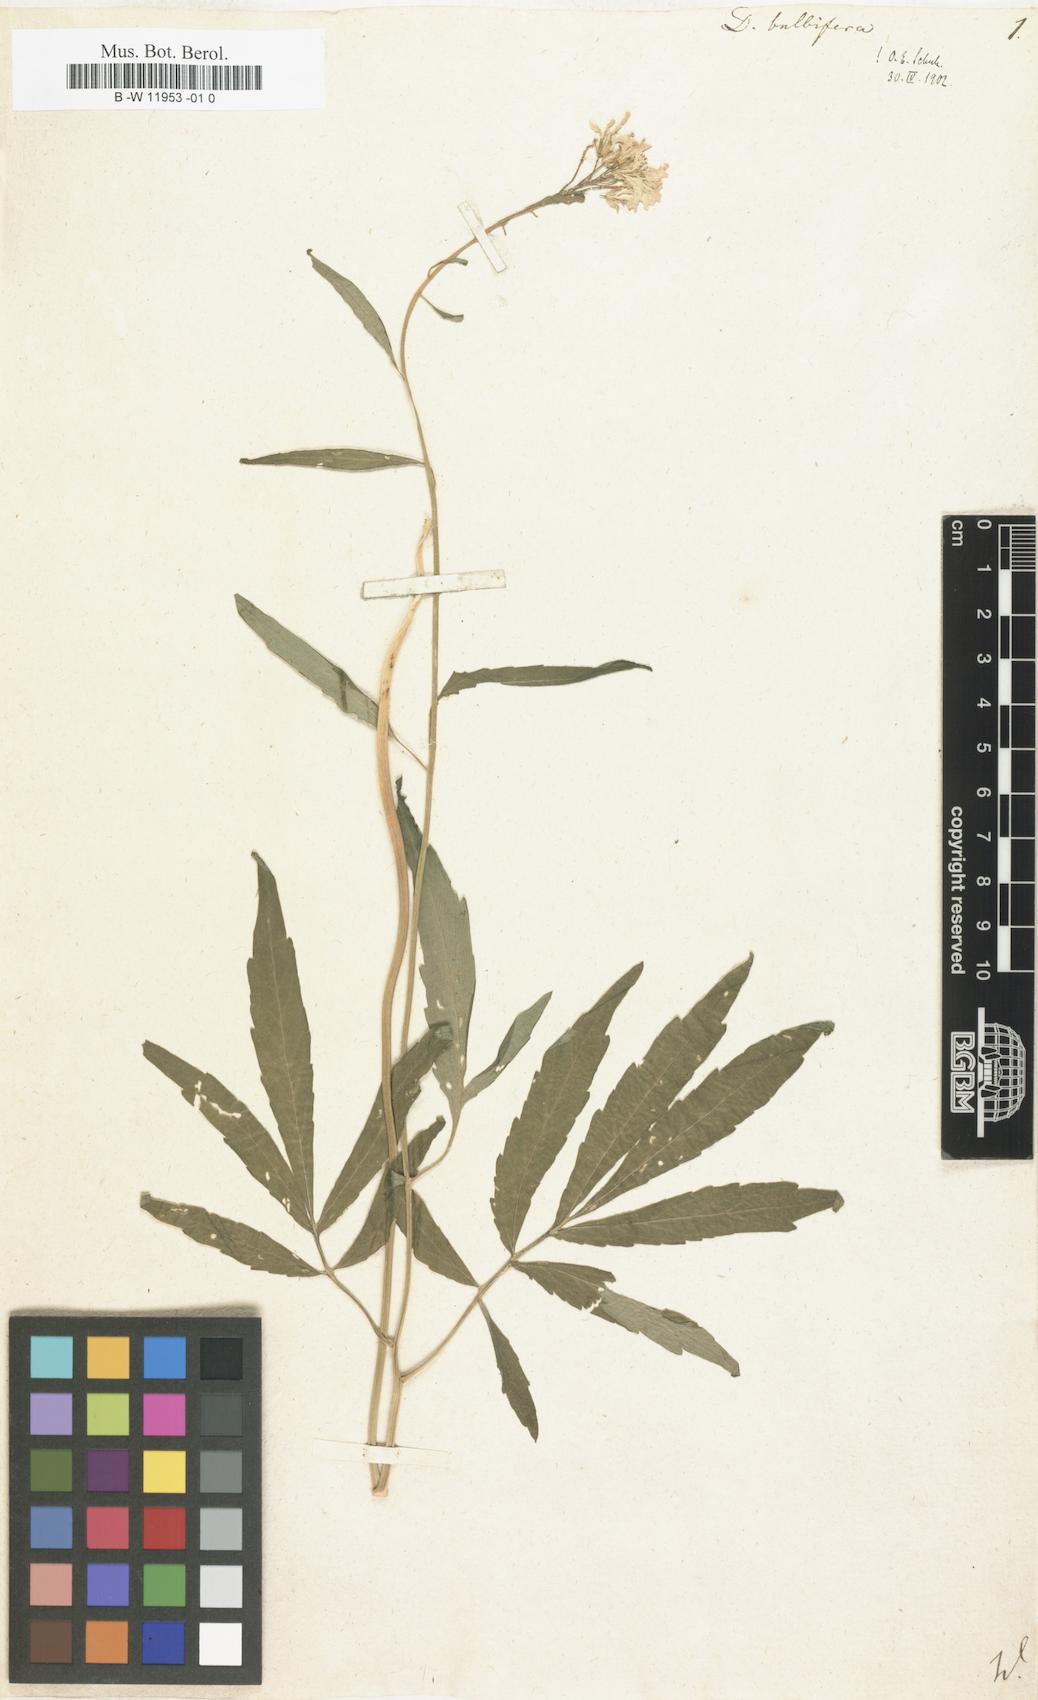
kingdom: Plantae
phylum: Tracheophyta
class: Magnoliopsida
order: Brassicales
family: Brassicaceae
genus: Cardamine
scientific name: Cardamine bulbifera
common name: Coralroot bittercress
